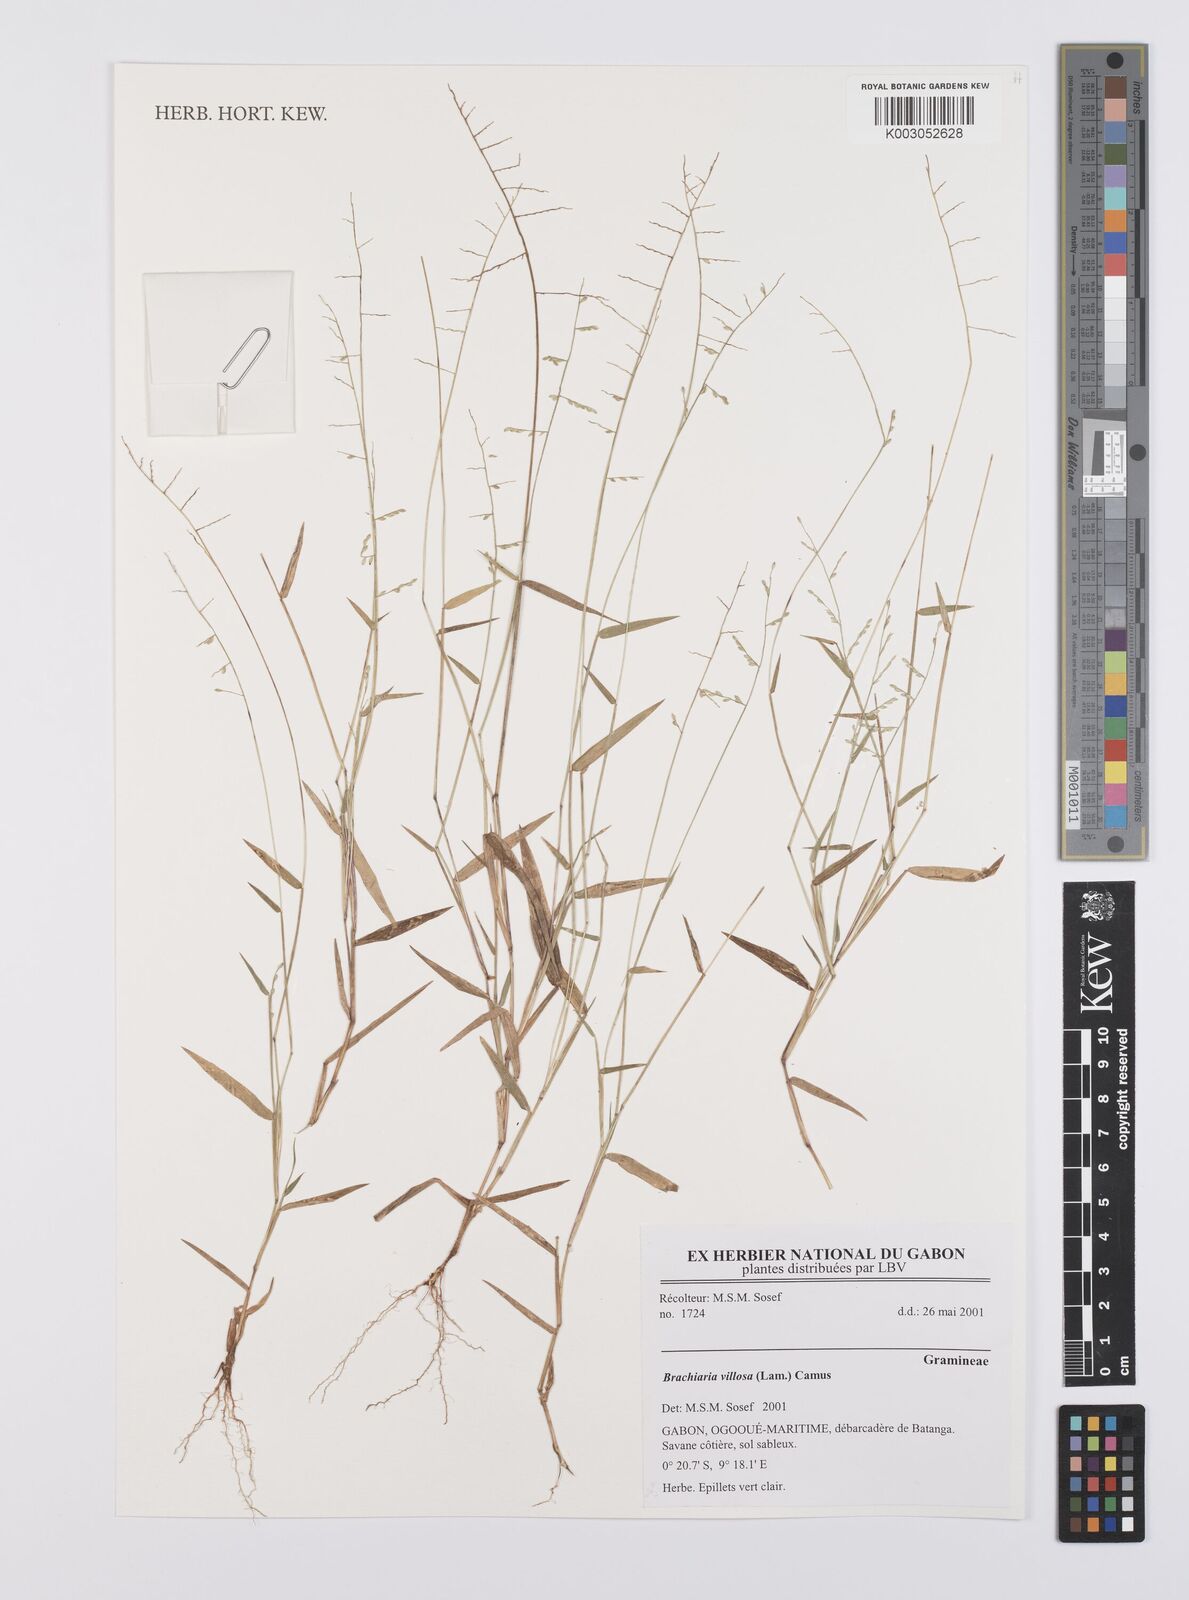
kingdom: Plantae
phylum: Tracheophyta
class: Liliopsida
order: Poales
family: Poaceae
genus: Urochloa
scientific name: Urochloa villosa
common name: Hairy signalgrass
